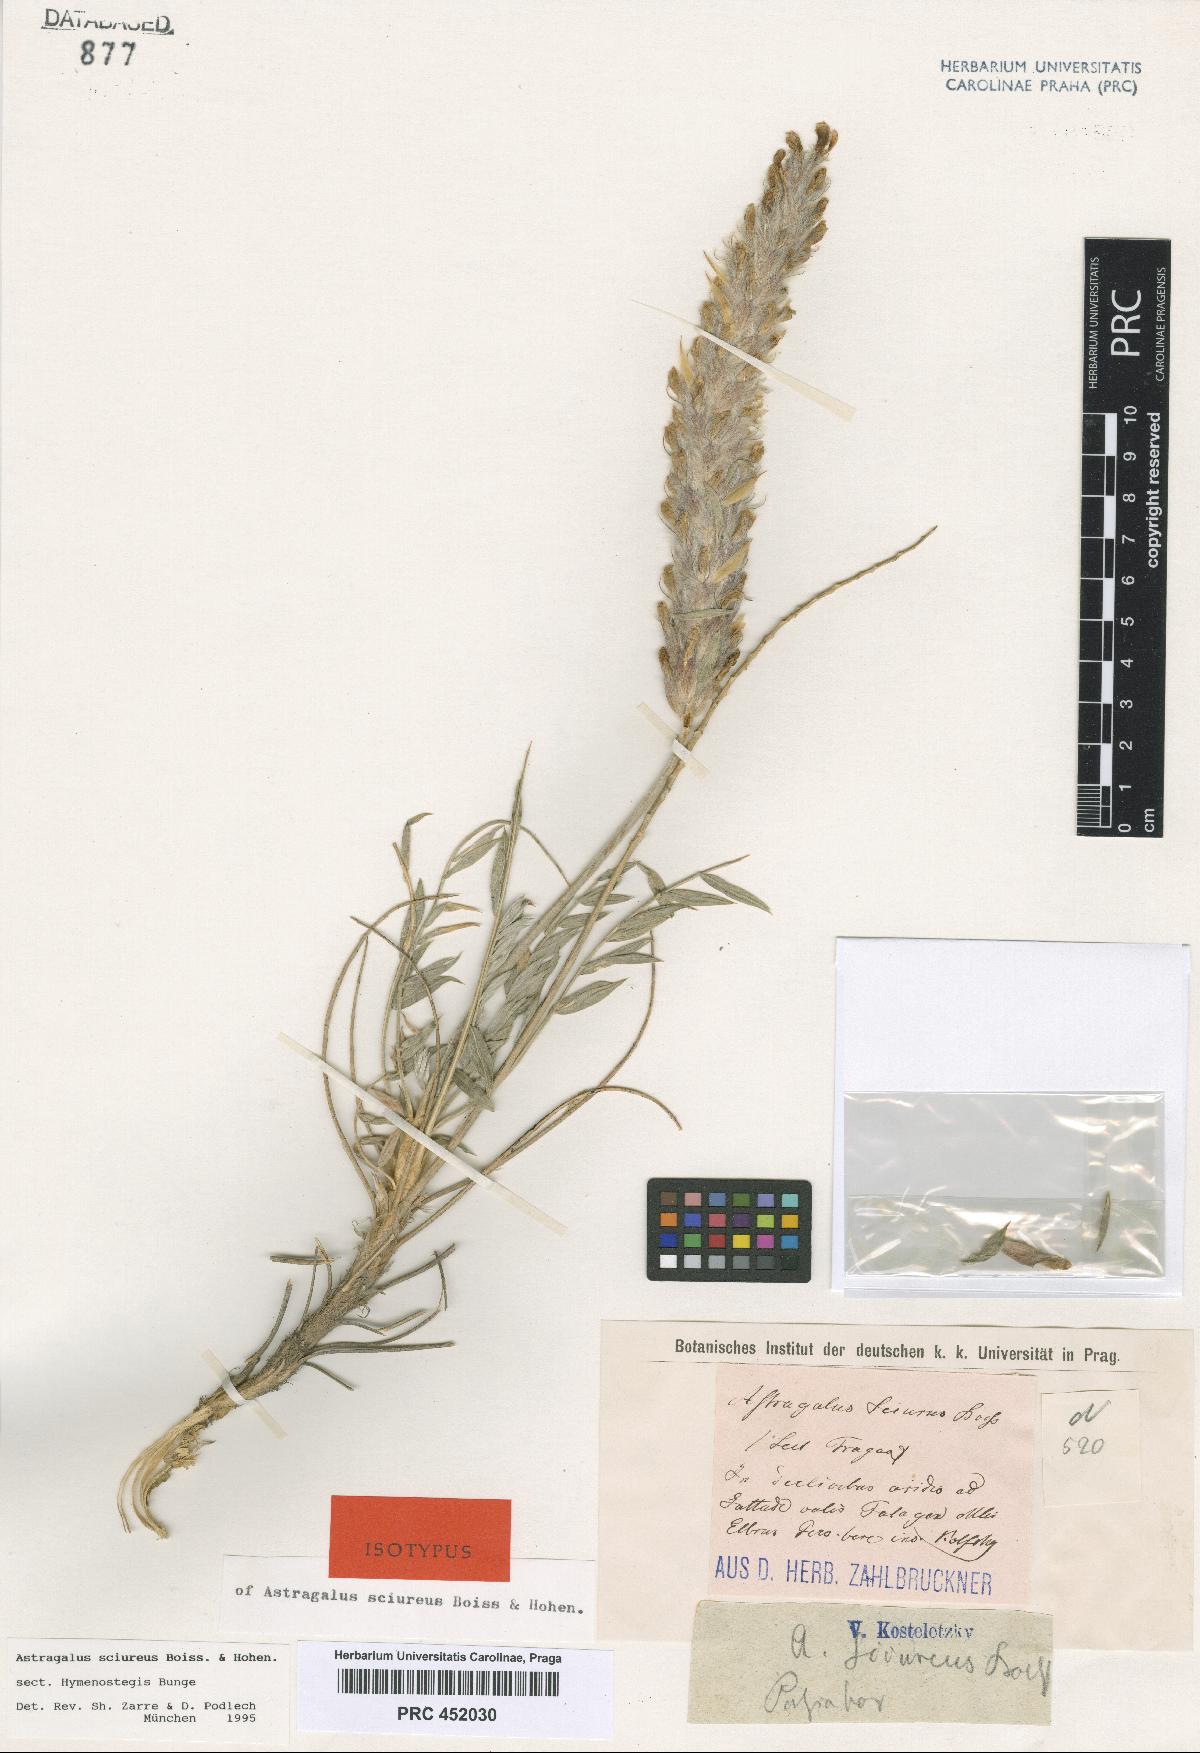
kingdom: Plantae
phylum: Tracheophyta
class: Magnoliopsida
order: Fabales
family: Fabaceae
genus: Astragalus
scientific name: Astragalus sciureus
